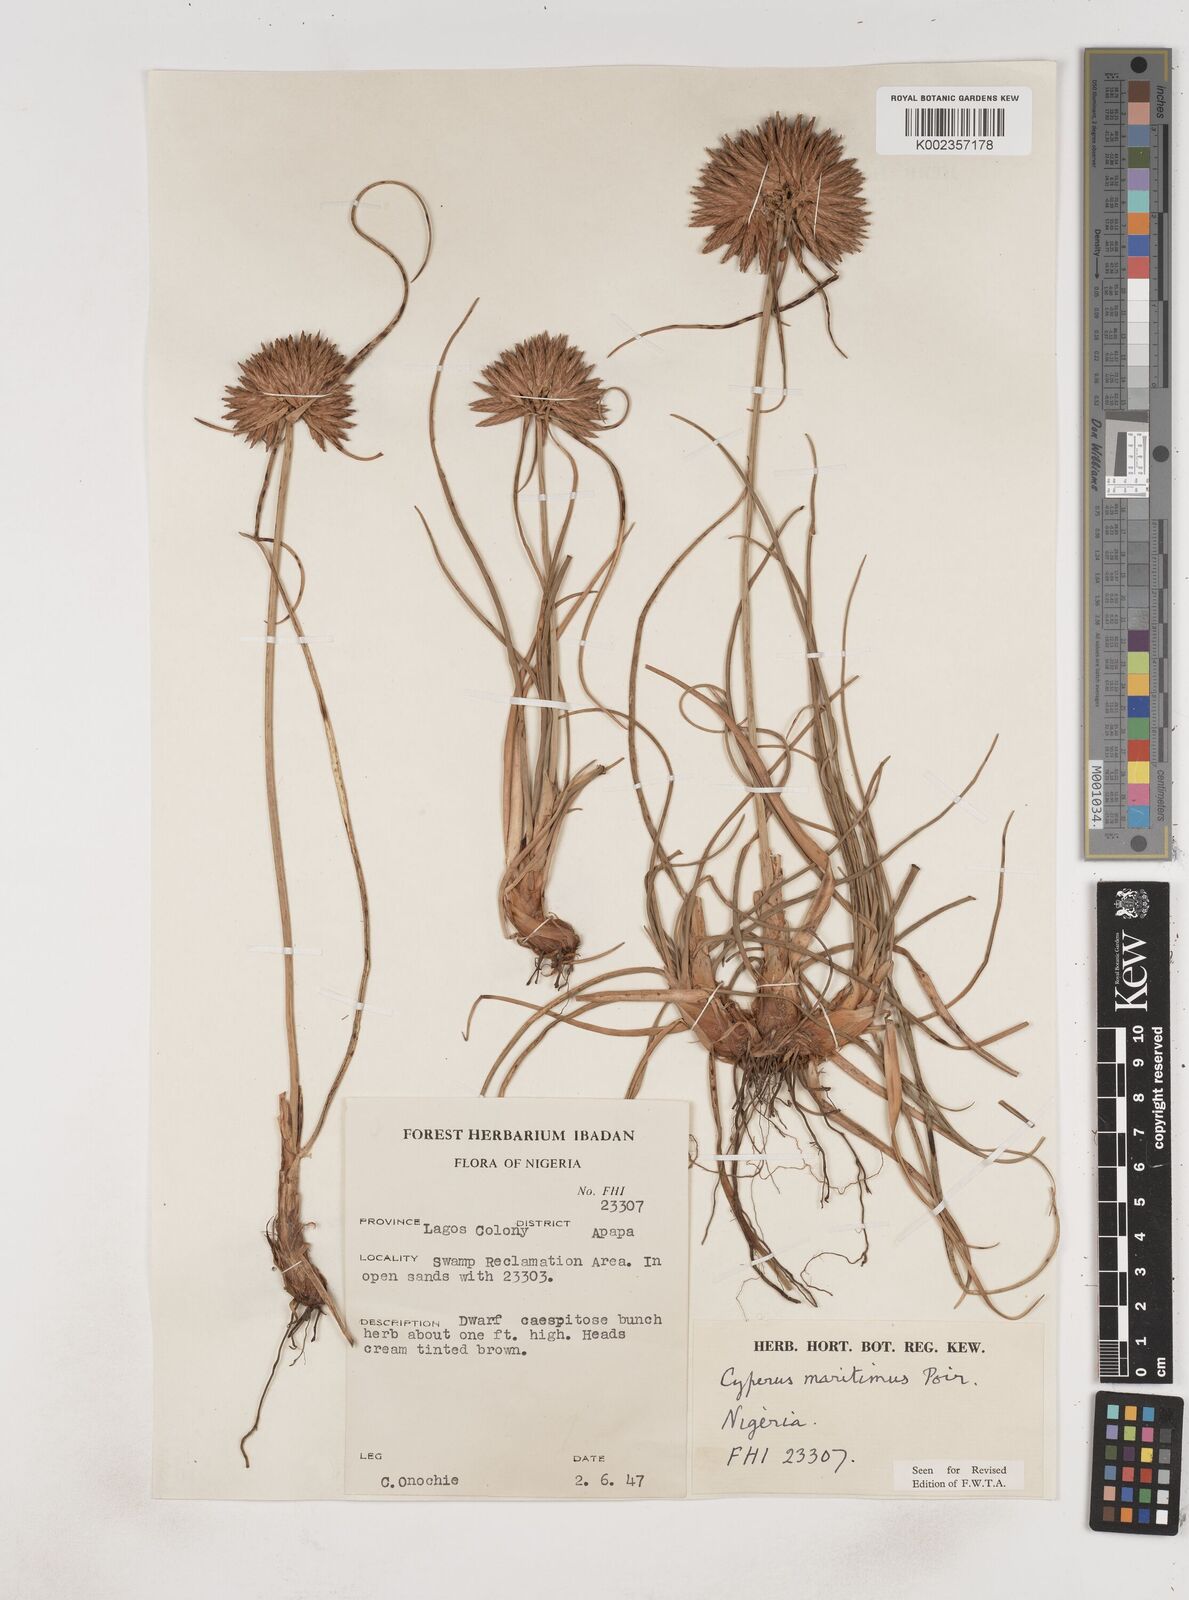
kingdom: Plantae
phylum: Tracheophyta
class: Liliopsida
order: Poales
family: Cyperaceae
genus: Cyperus
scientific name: Cyperus crassipes
